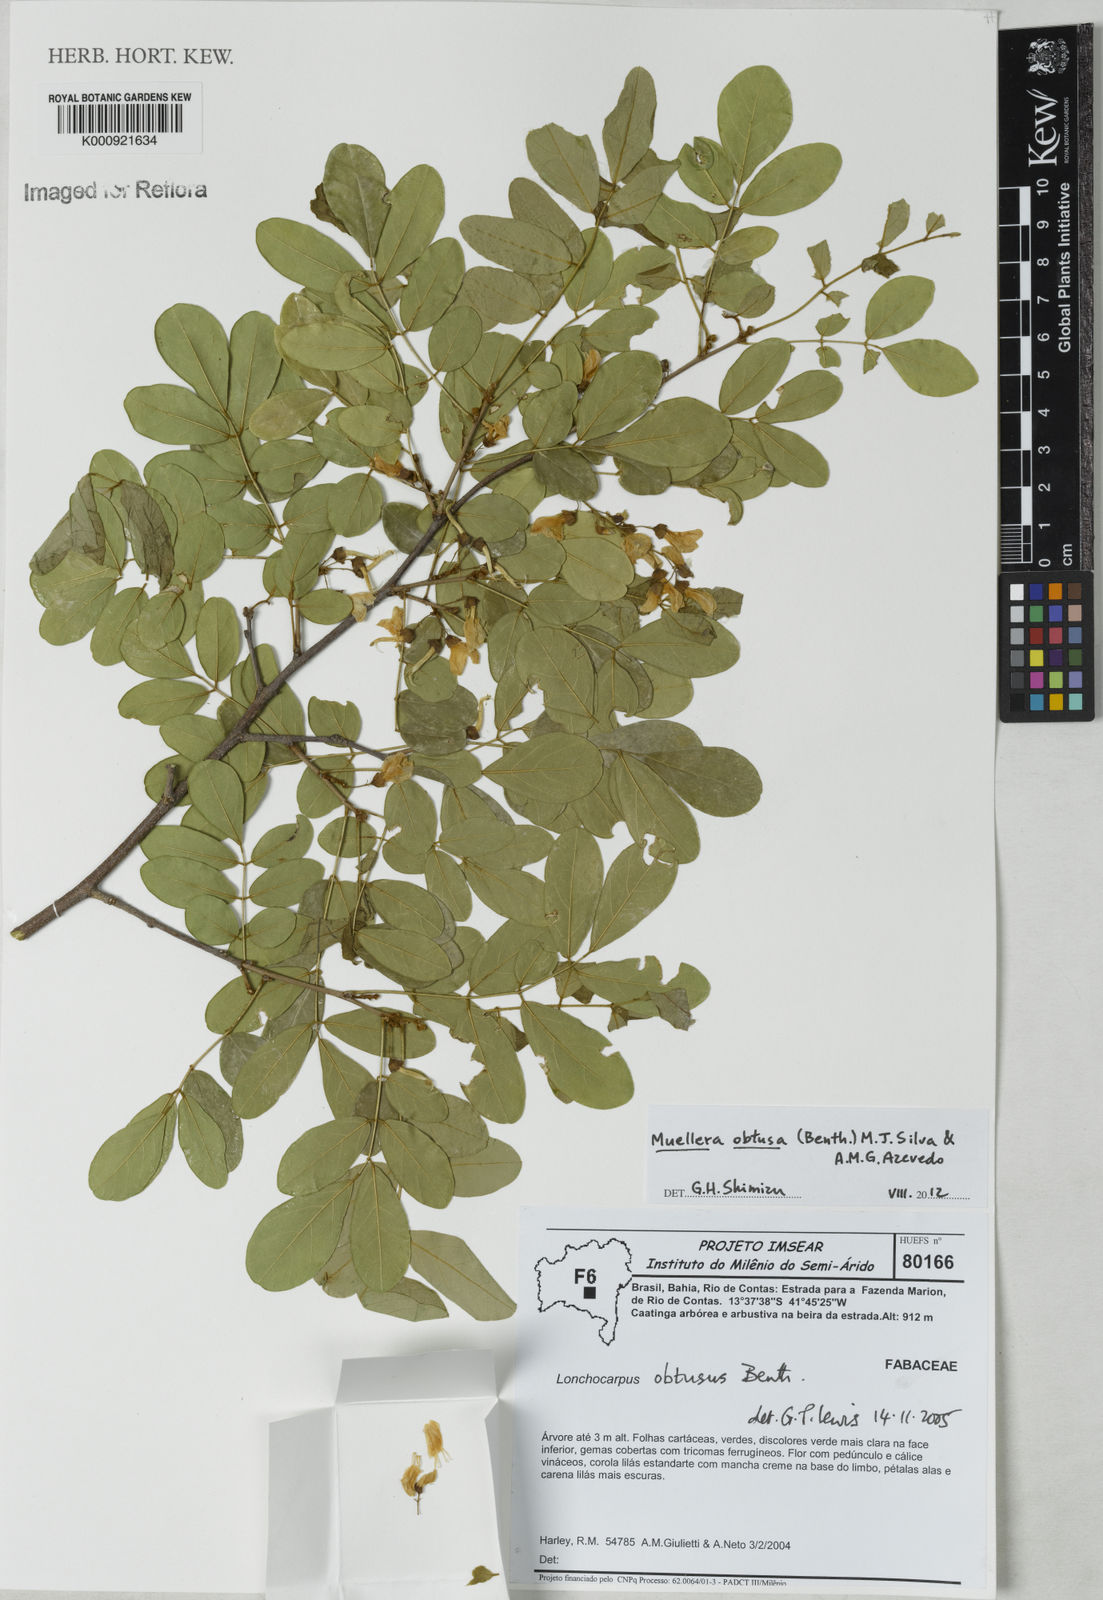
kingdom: Plantae
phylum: Tracheophyta
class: Magnoliopsida
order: Fabales
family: Fabaceae
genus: Muellera
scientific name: Muellera obtusa
